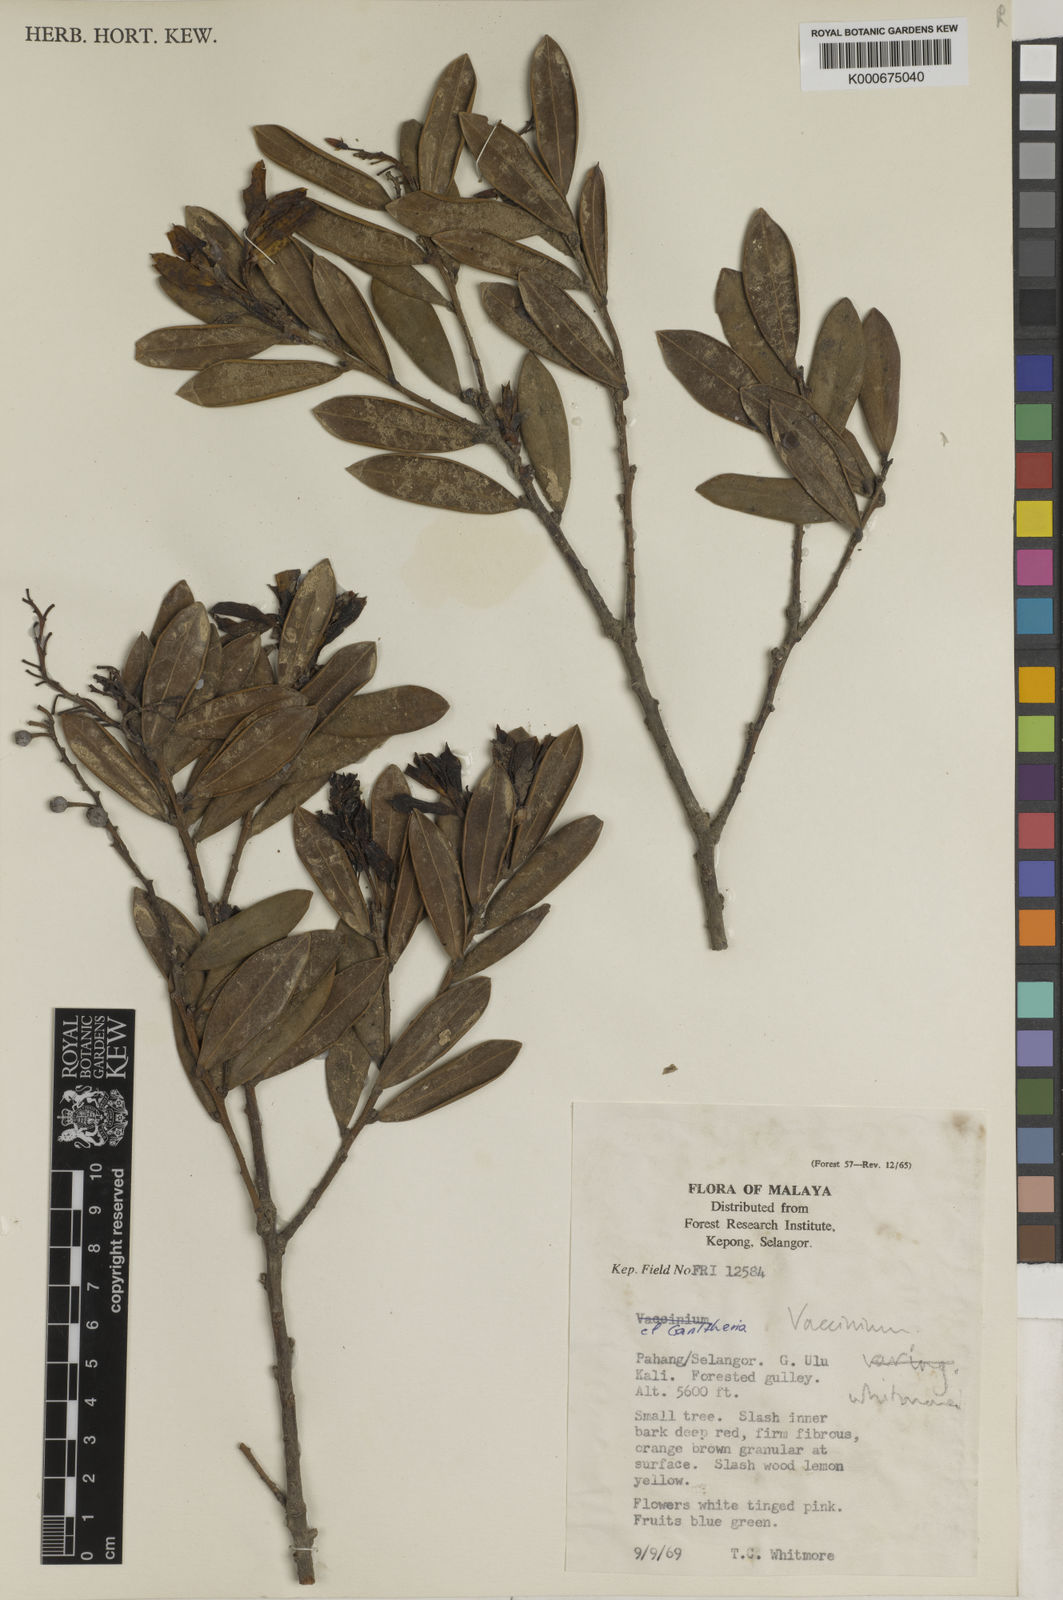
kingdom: Plantae
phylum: Tracheophyta
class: Magnoliopsida
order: Ericales
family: Ericaceae
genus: Vaccinium
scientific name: Vaccinium whitmorei
